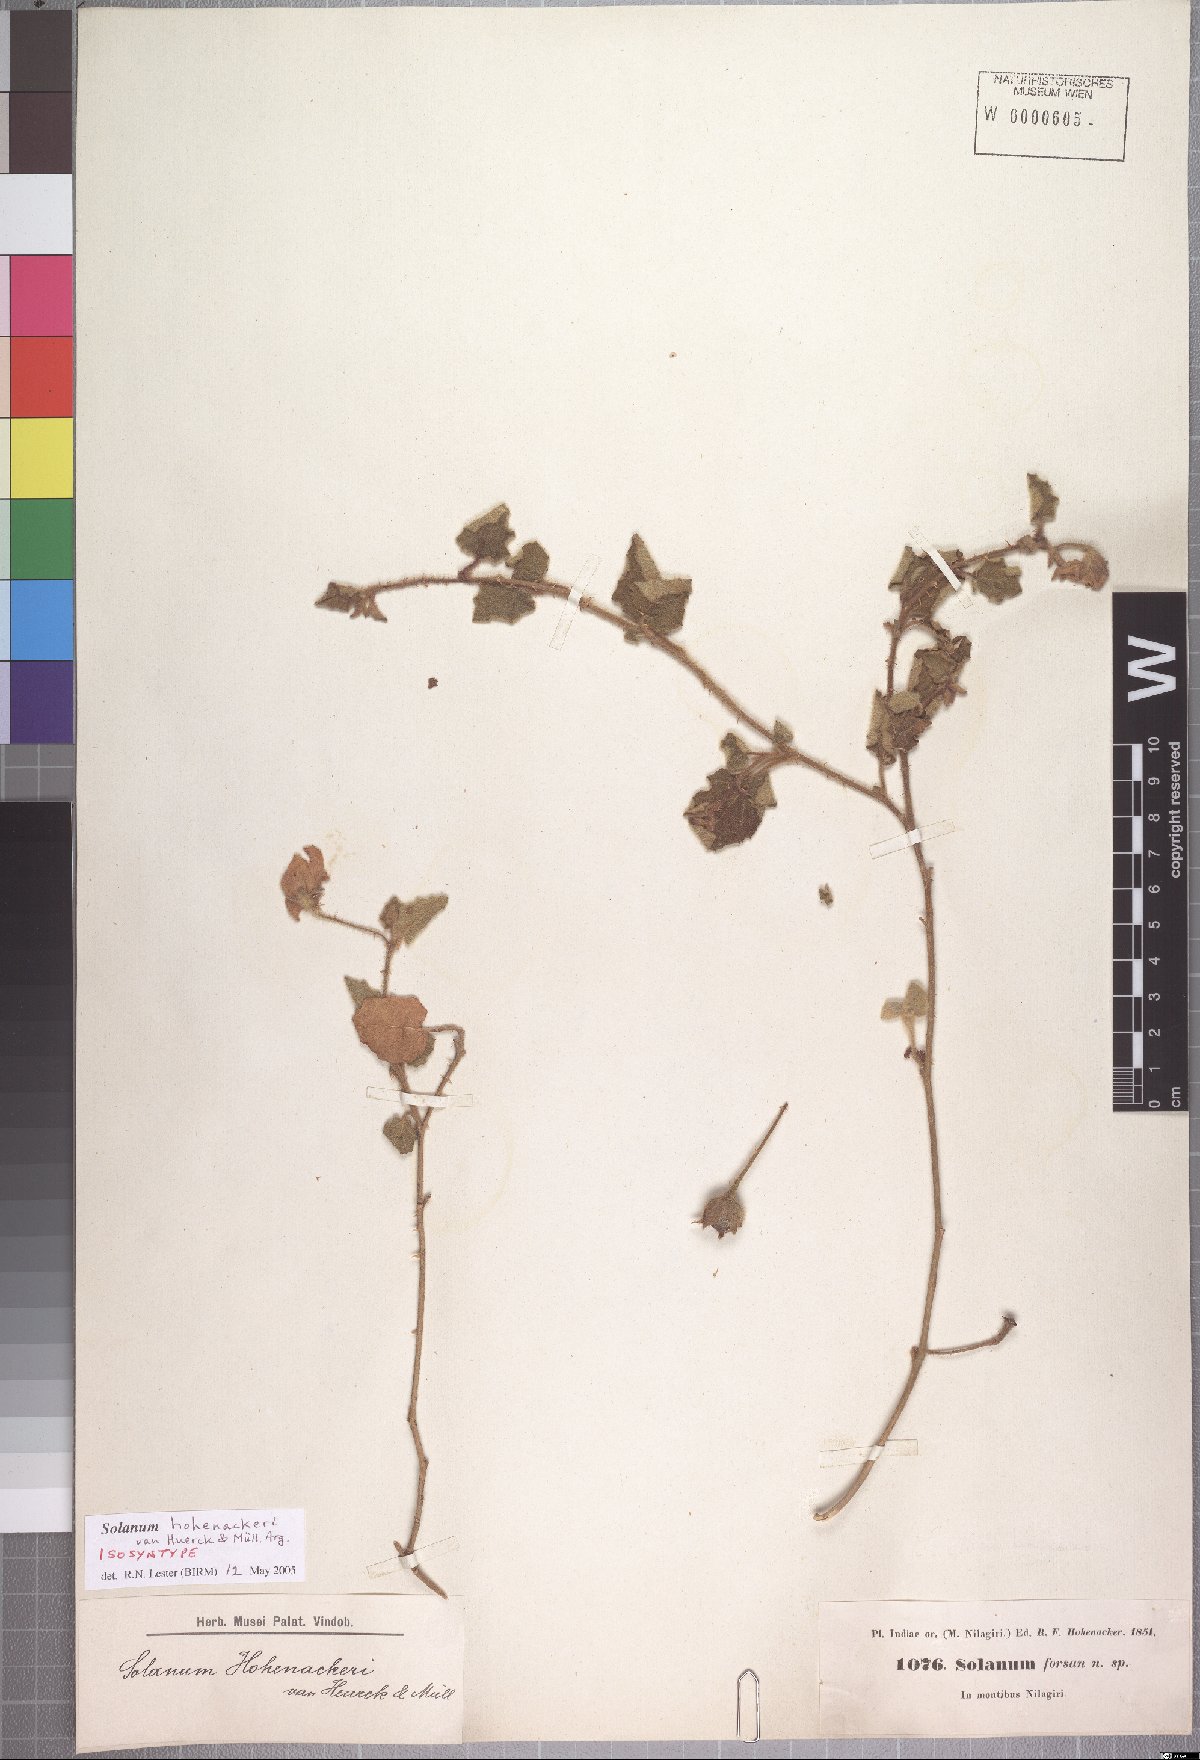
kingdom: Plantae
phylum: Tracheophyta
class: Magnoliopsida
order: Solanales
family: Solanaceae
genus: Solanum
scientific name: Solanum wightii
